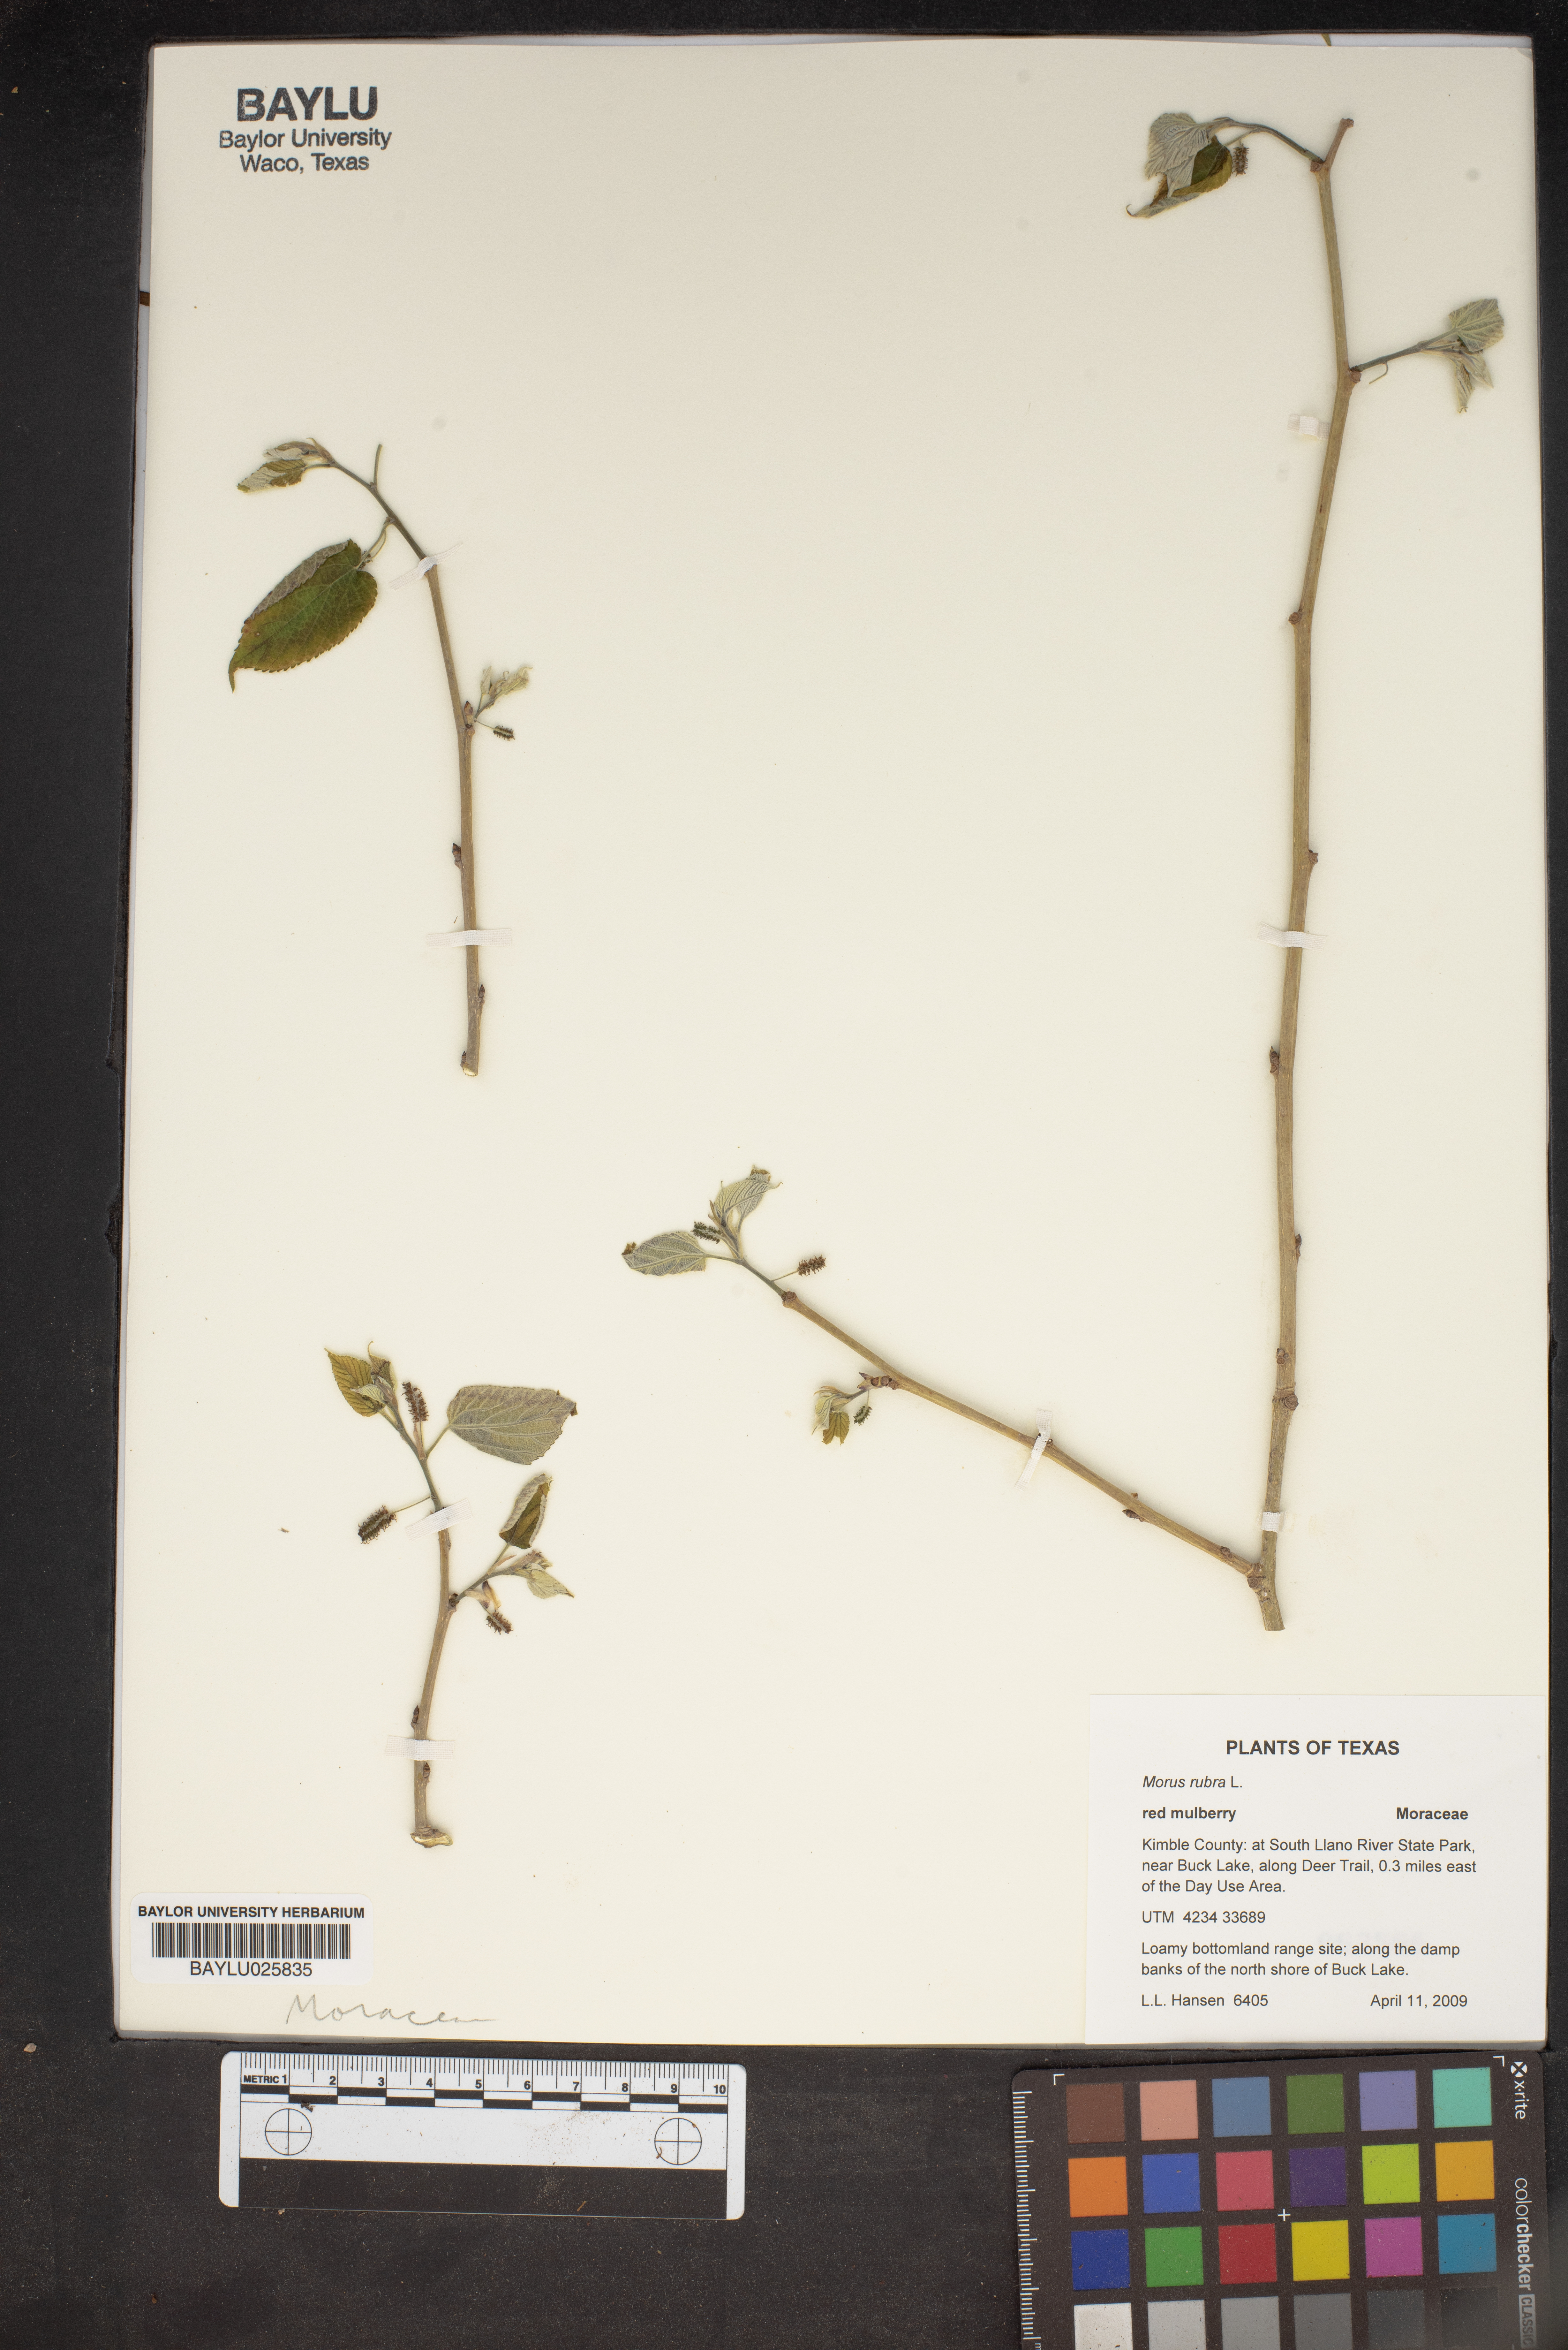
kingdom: Plantae
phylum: Tracheophyta
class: Magnoliopsida
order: Rosales
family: Moraceae
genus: Morus
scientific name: Morus rubra
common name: Red mulberry
